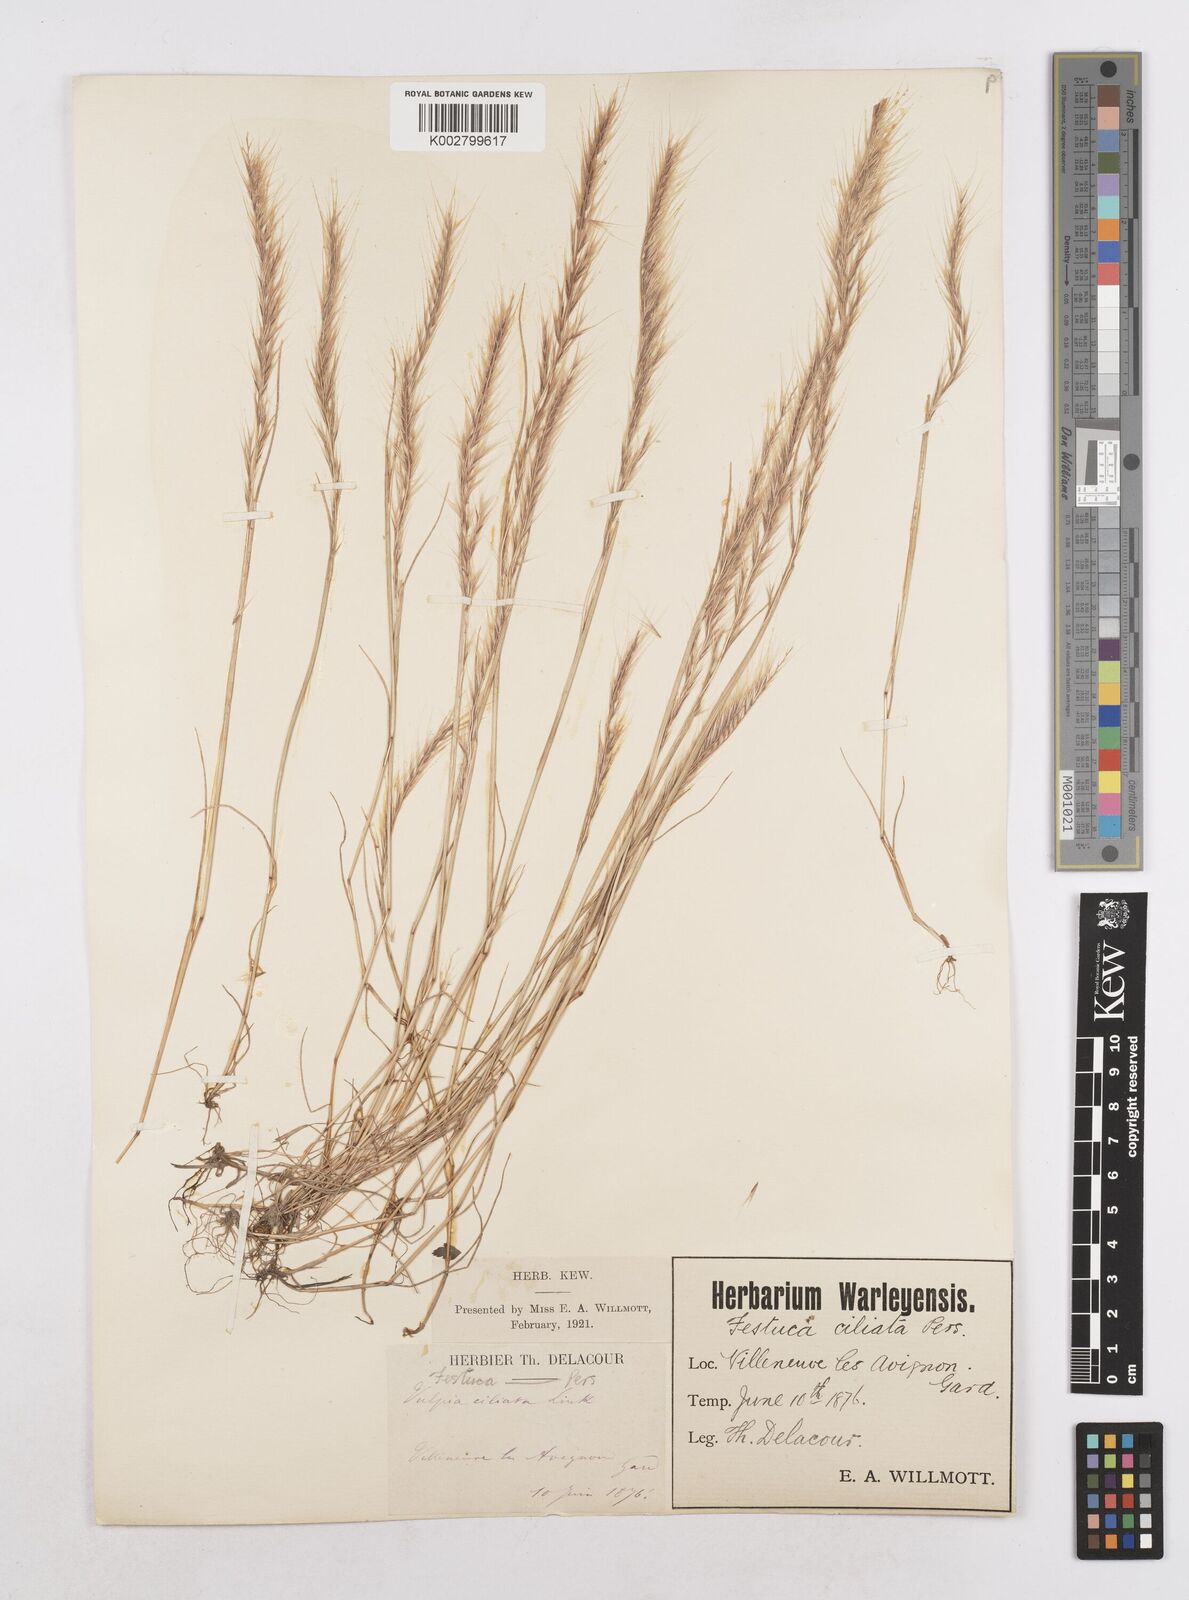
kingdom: Plantae
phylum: Tracheophyta
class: Liliopsida
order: Poales
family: Poaceae
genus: Festuca
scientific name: Festuca
